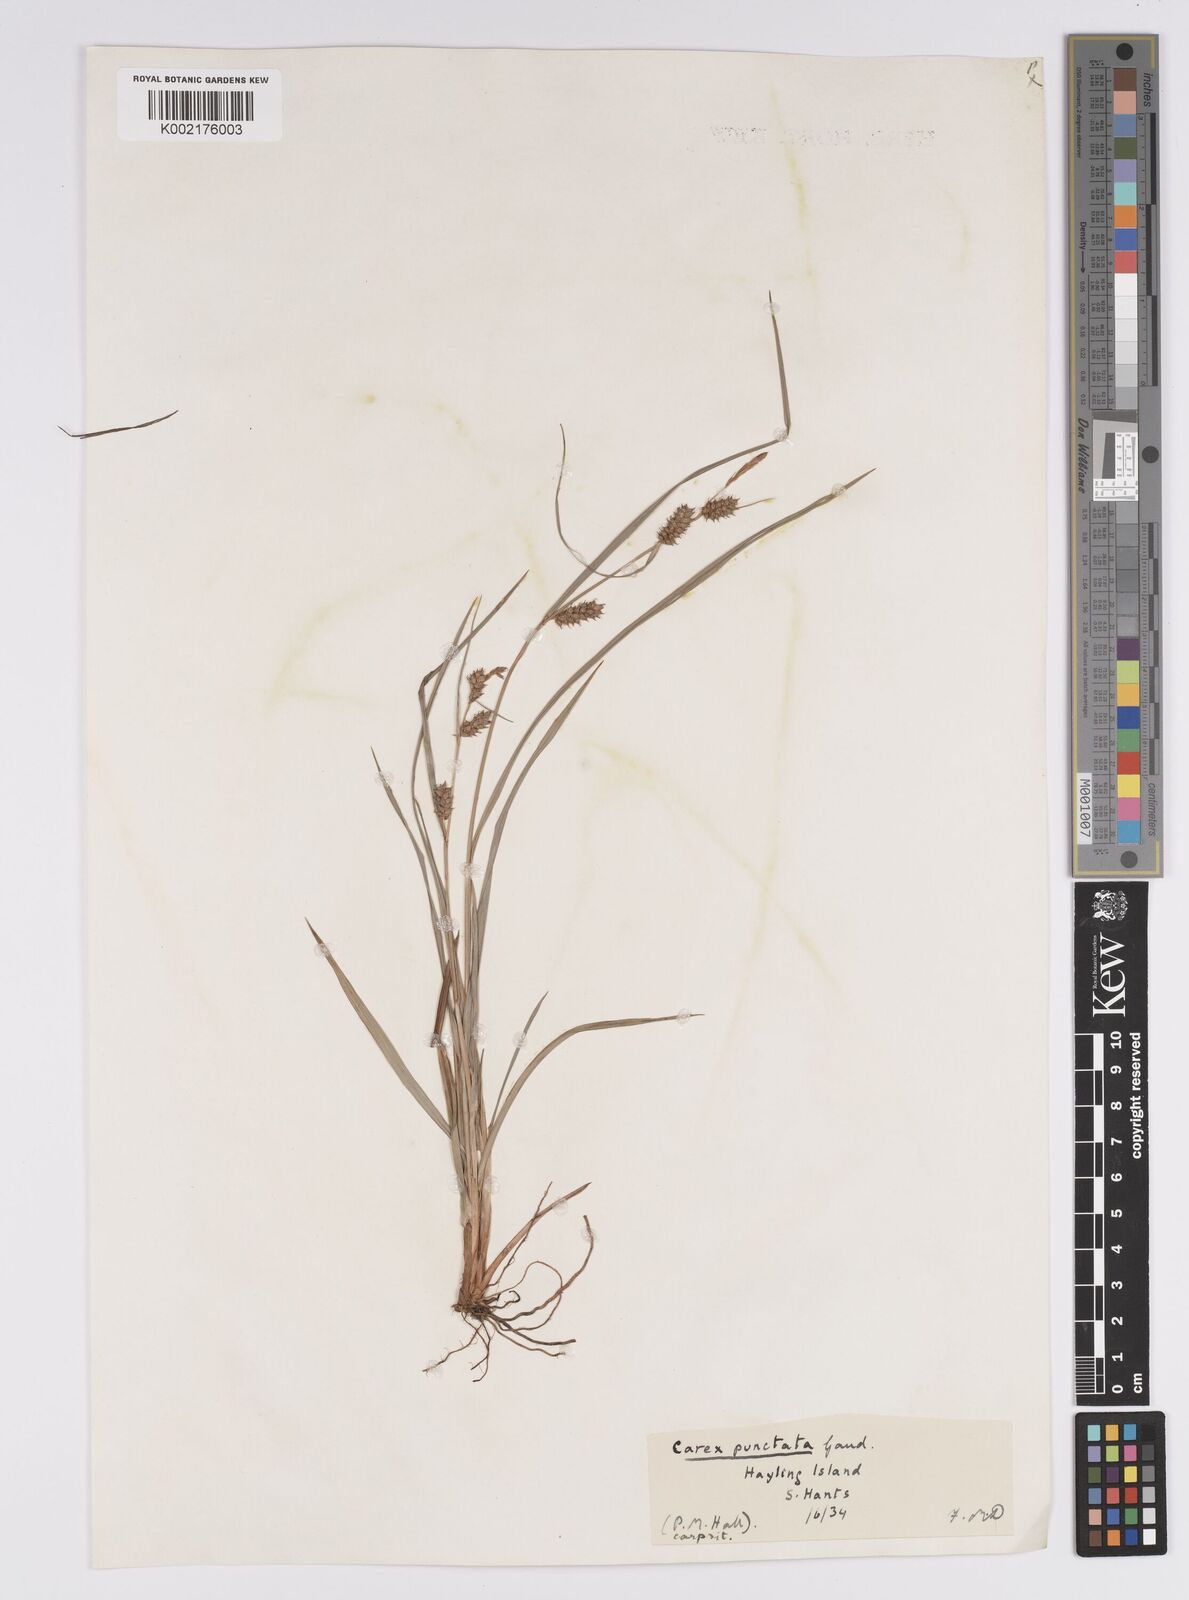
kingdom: Plantae
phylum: Tracheophyta
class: Liliopsida
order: Poales
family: Cyperaceae
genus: Carex
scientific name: Carex punctata
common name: Dotted sedge
